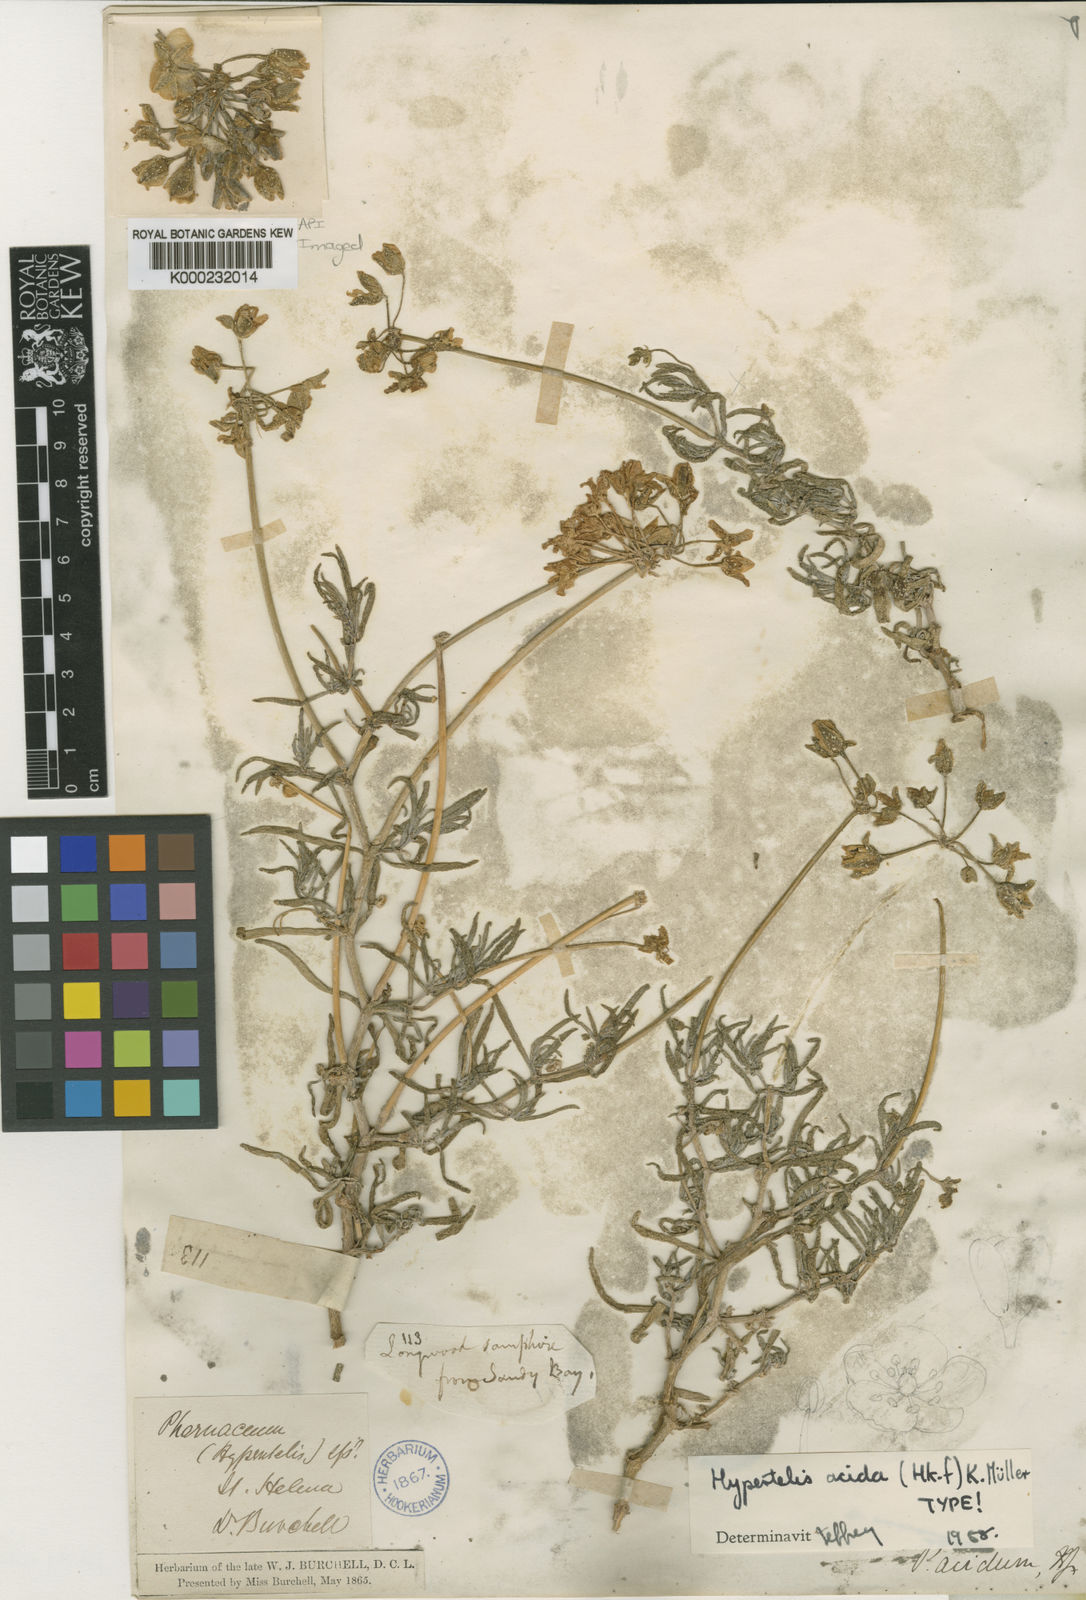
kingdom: Plantae
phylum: Tracheophyta
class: Magnoliopsida
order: Caryophyllales
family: Kewaceae
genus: Kewa
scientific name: Kewa acida
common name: Salad plant
